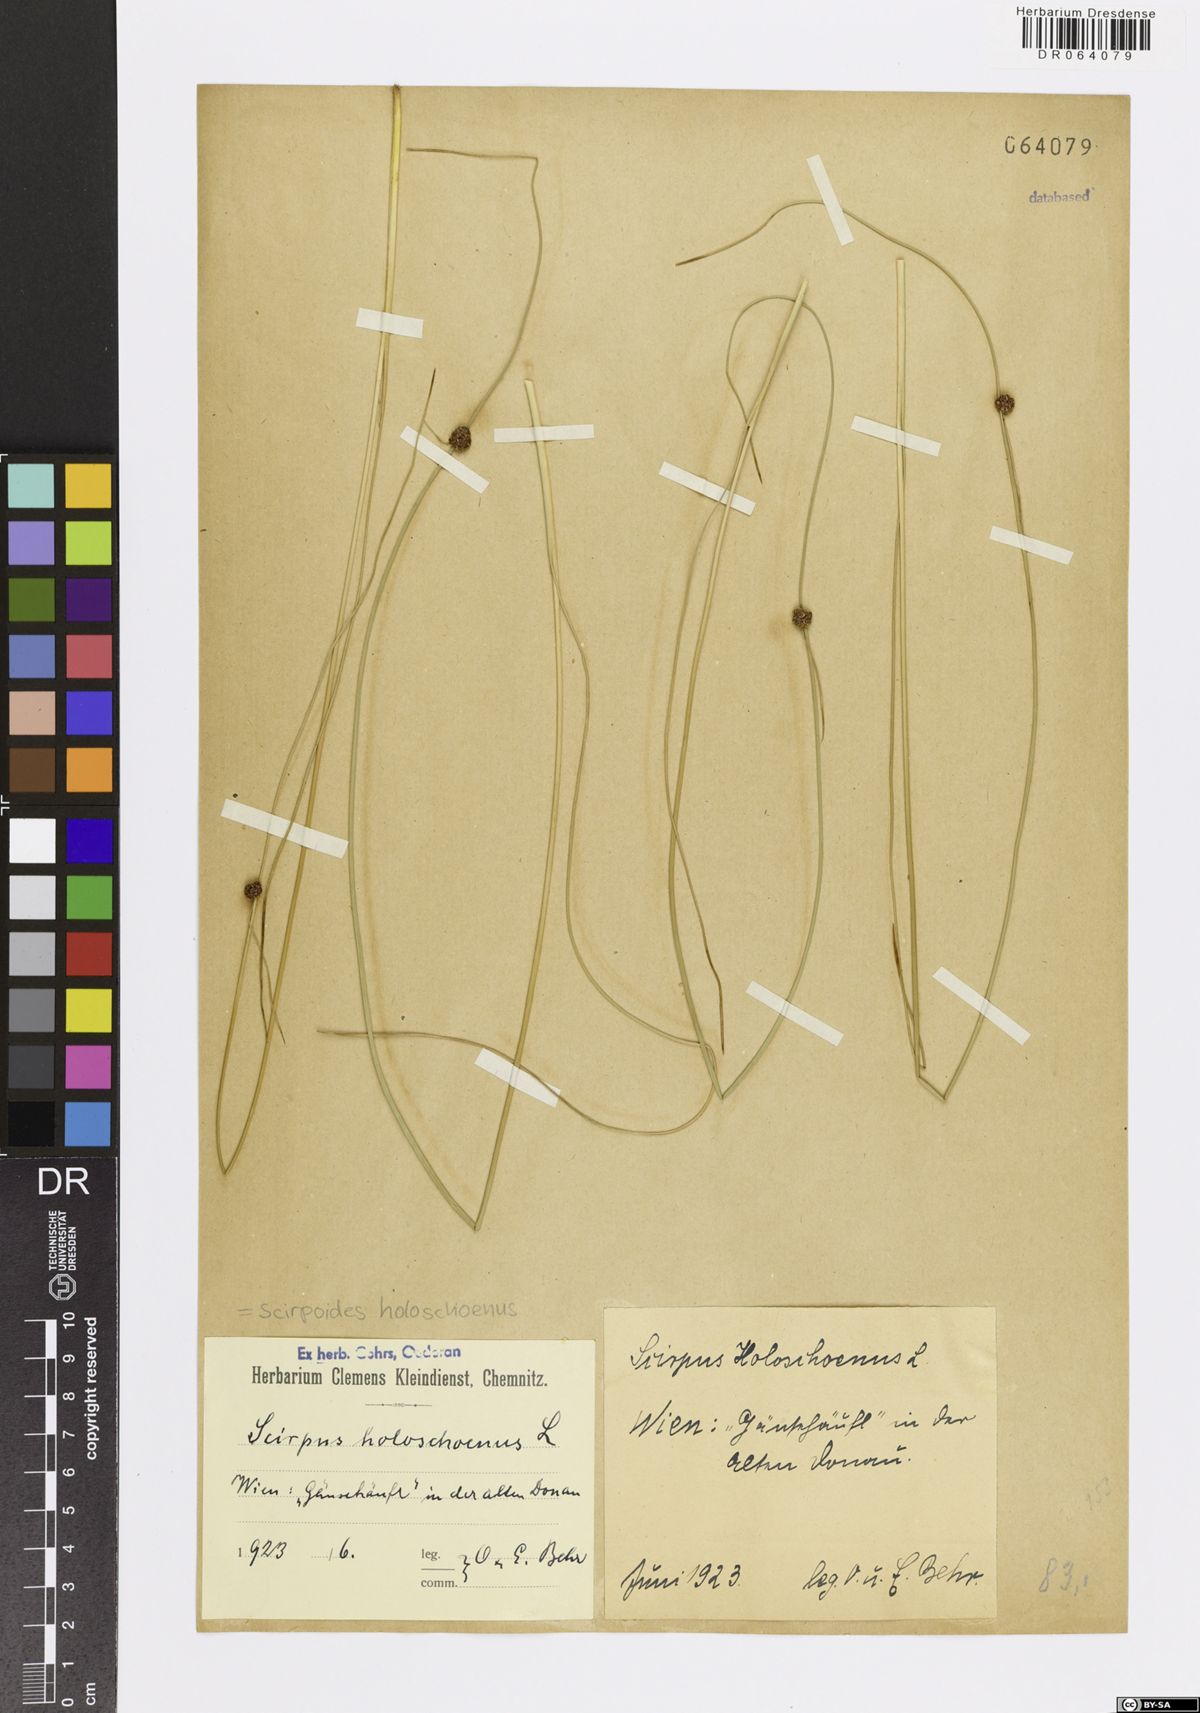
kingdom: Plantae
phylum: Tracheophyta
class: Liliopsida
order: Poales
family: Cyperaceae
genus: Scirpoides
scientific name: Scirpoides holoschoenus
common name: Round-headed club-rush
